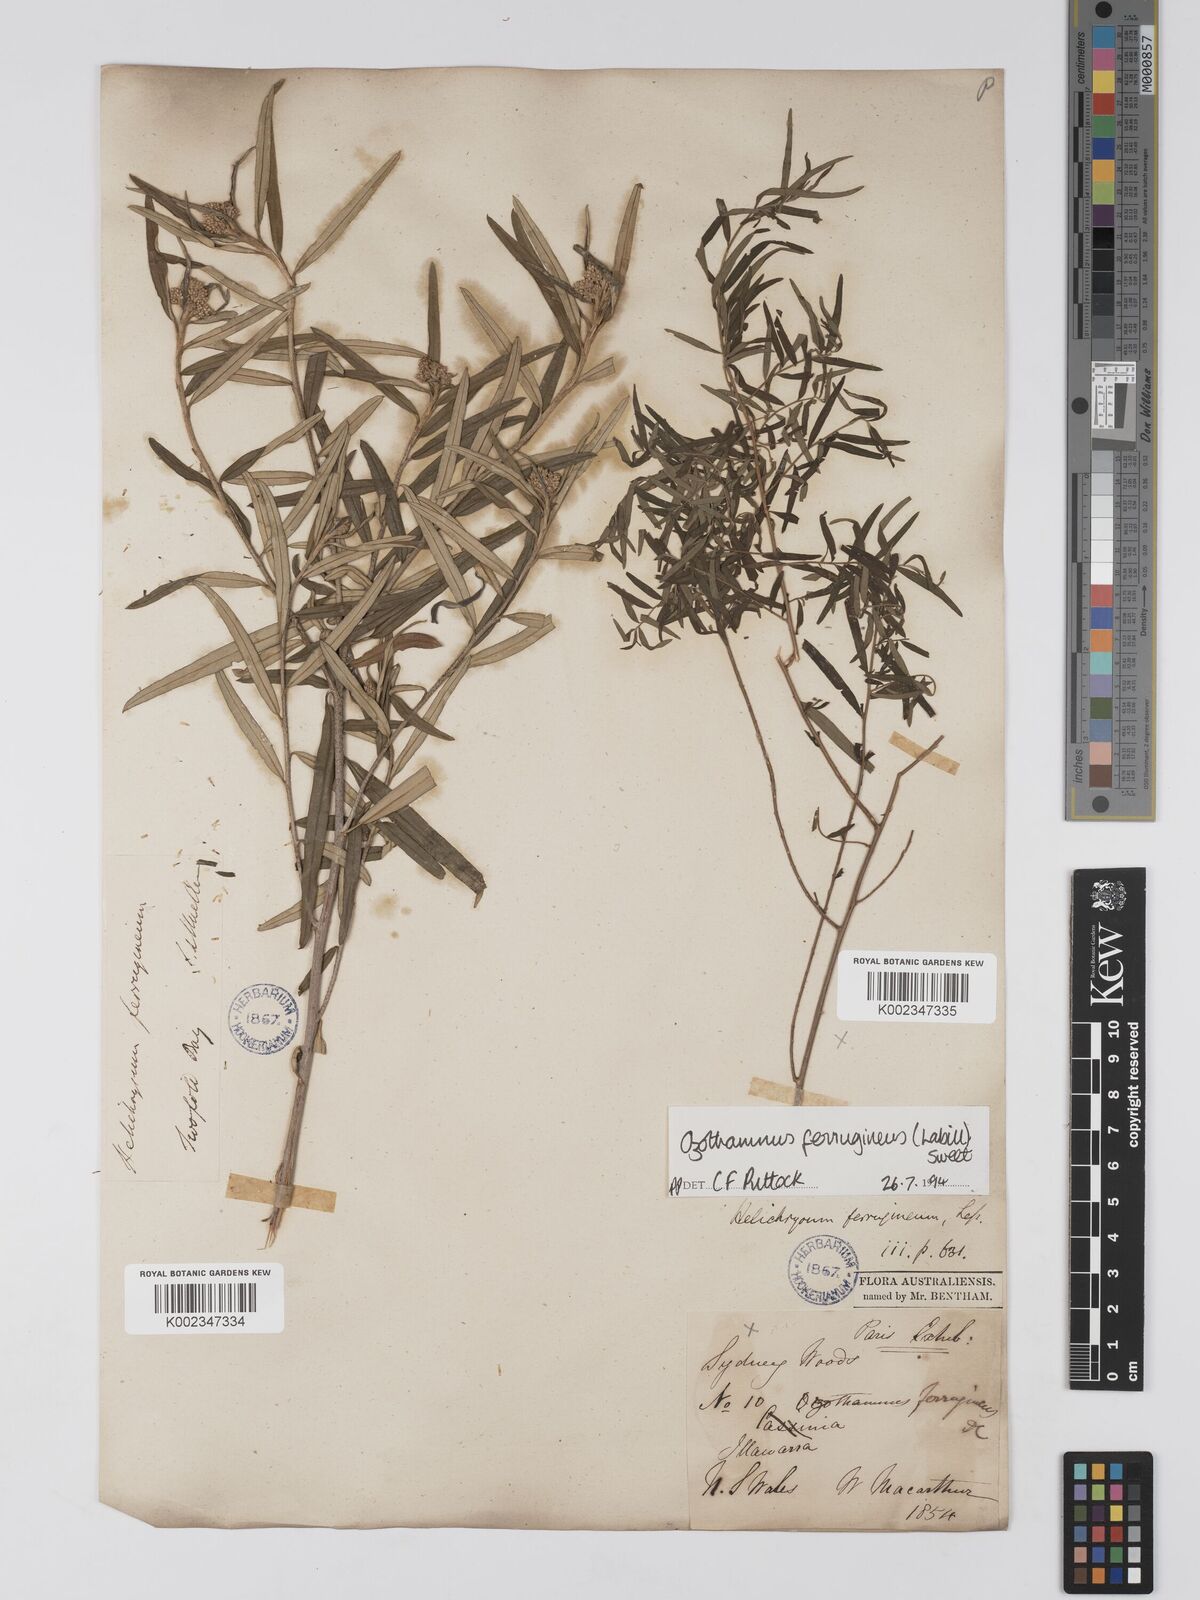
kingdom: Plantae
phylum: Tracheophyta
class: Magnoliopsida
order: Asterales
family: Asteraceae
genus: Ozothamnus
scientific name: Ozothamnus argophyllus
